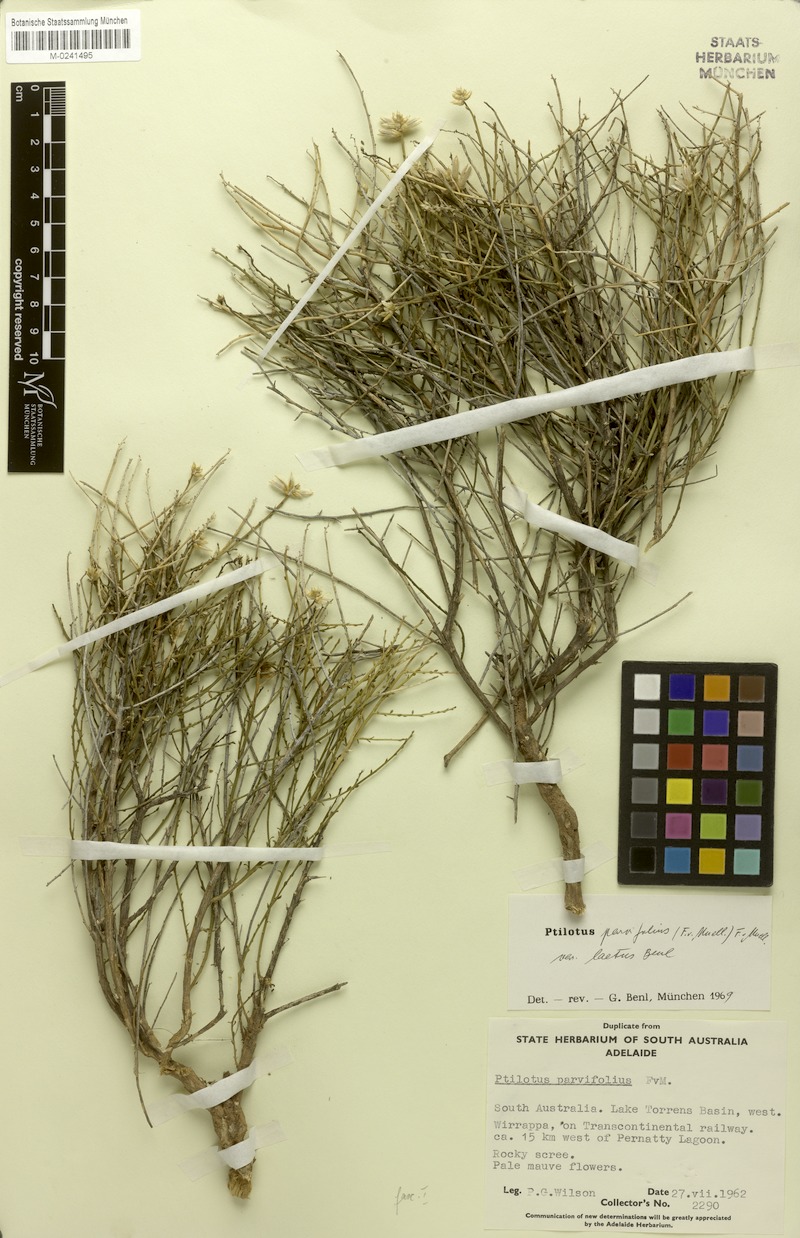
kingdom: Plantae
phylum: Tracheophyta
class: Magnoliopsida
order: Caryophyllales
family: Amaranthaceae
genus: Ptilotus
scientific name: Ptilotus parvifolius
